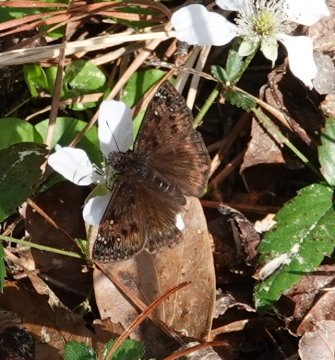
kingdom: Animalia
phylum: Arthropoda
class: Insecta
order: Lepidoptera
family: Hesperiidae
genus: Gesta
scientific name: Gesta
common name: Juvenal's Duskywing
